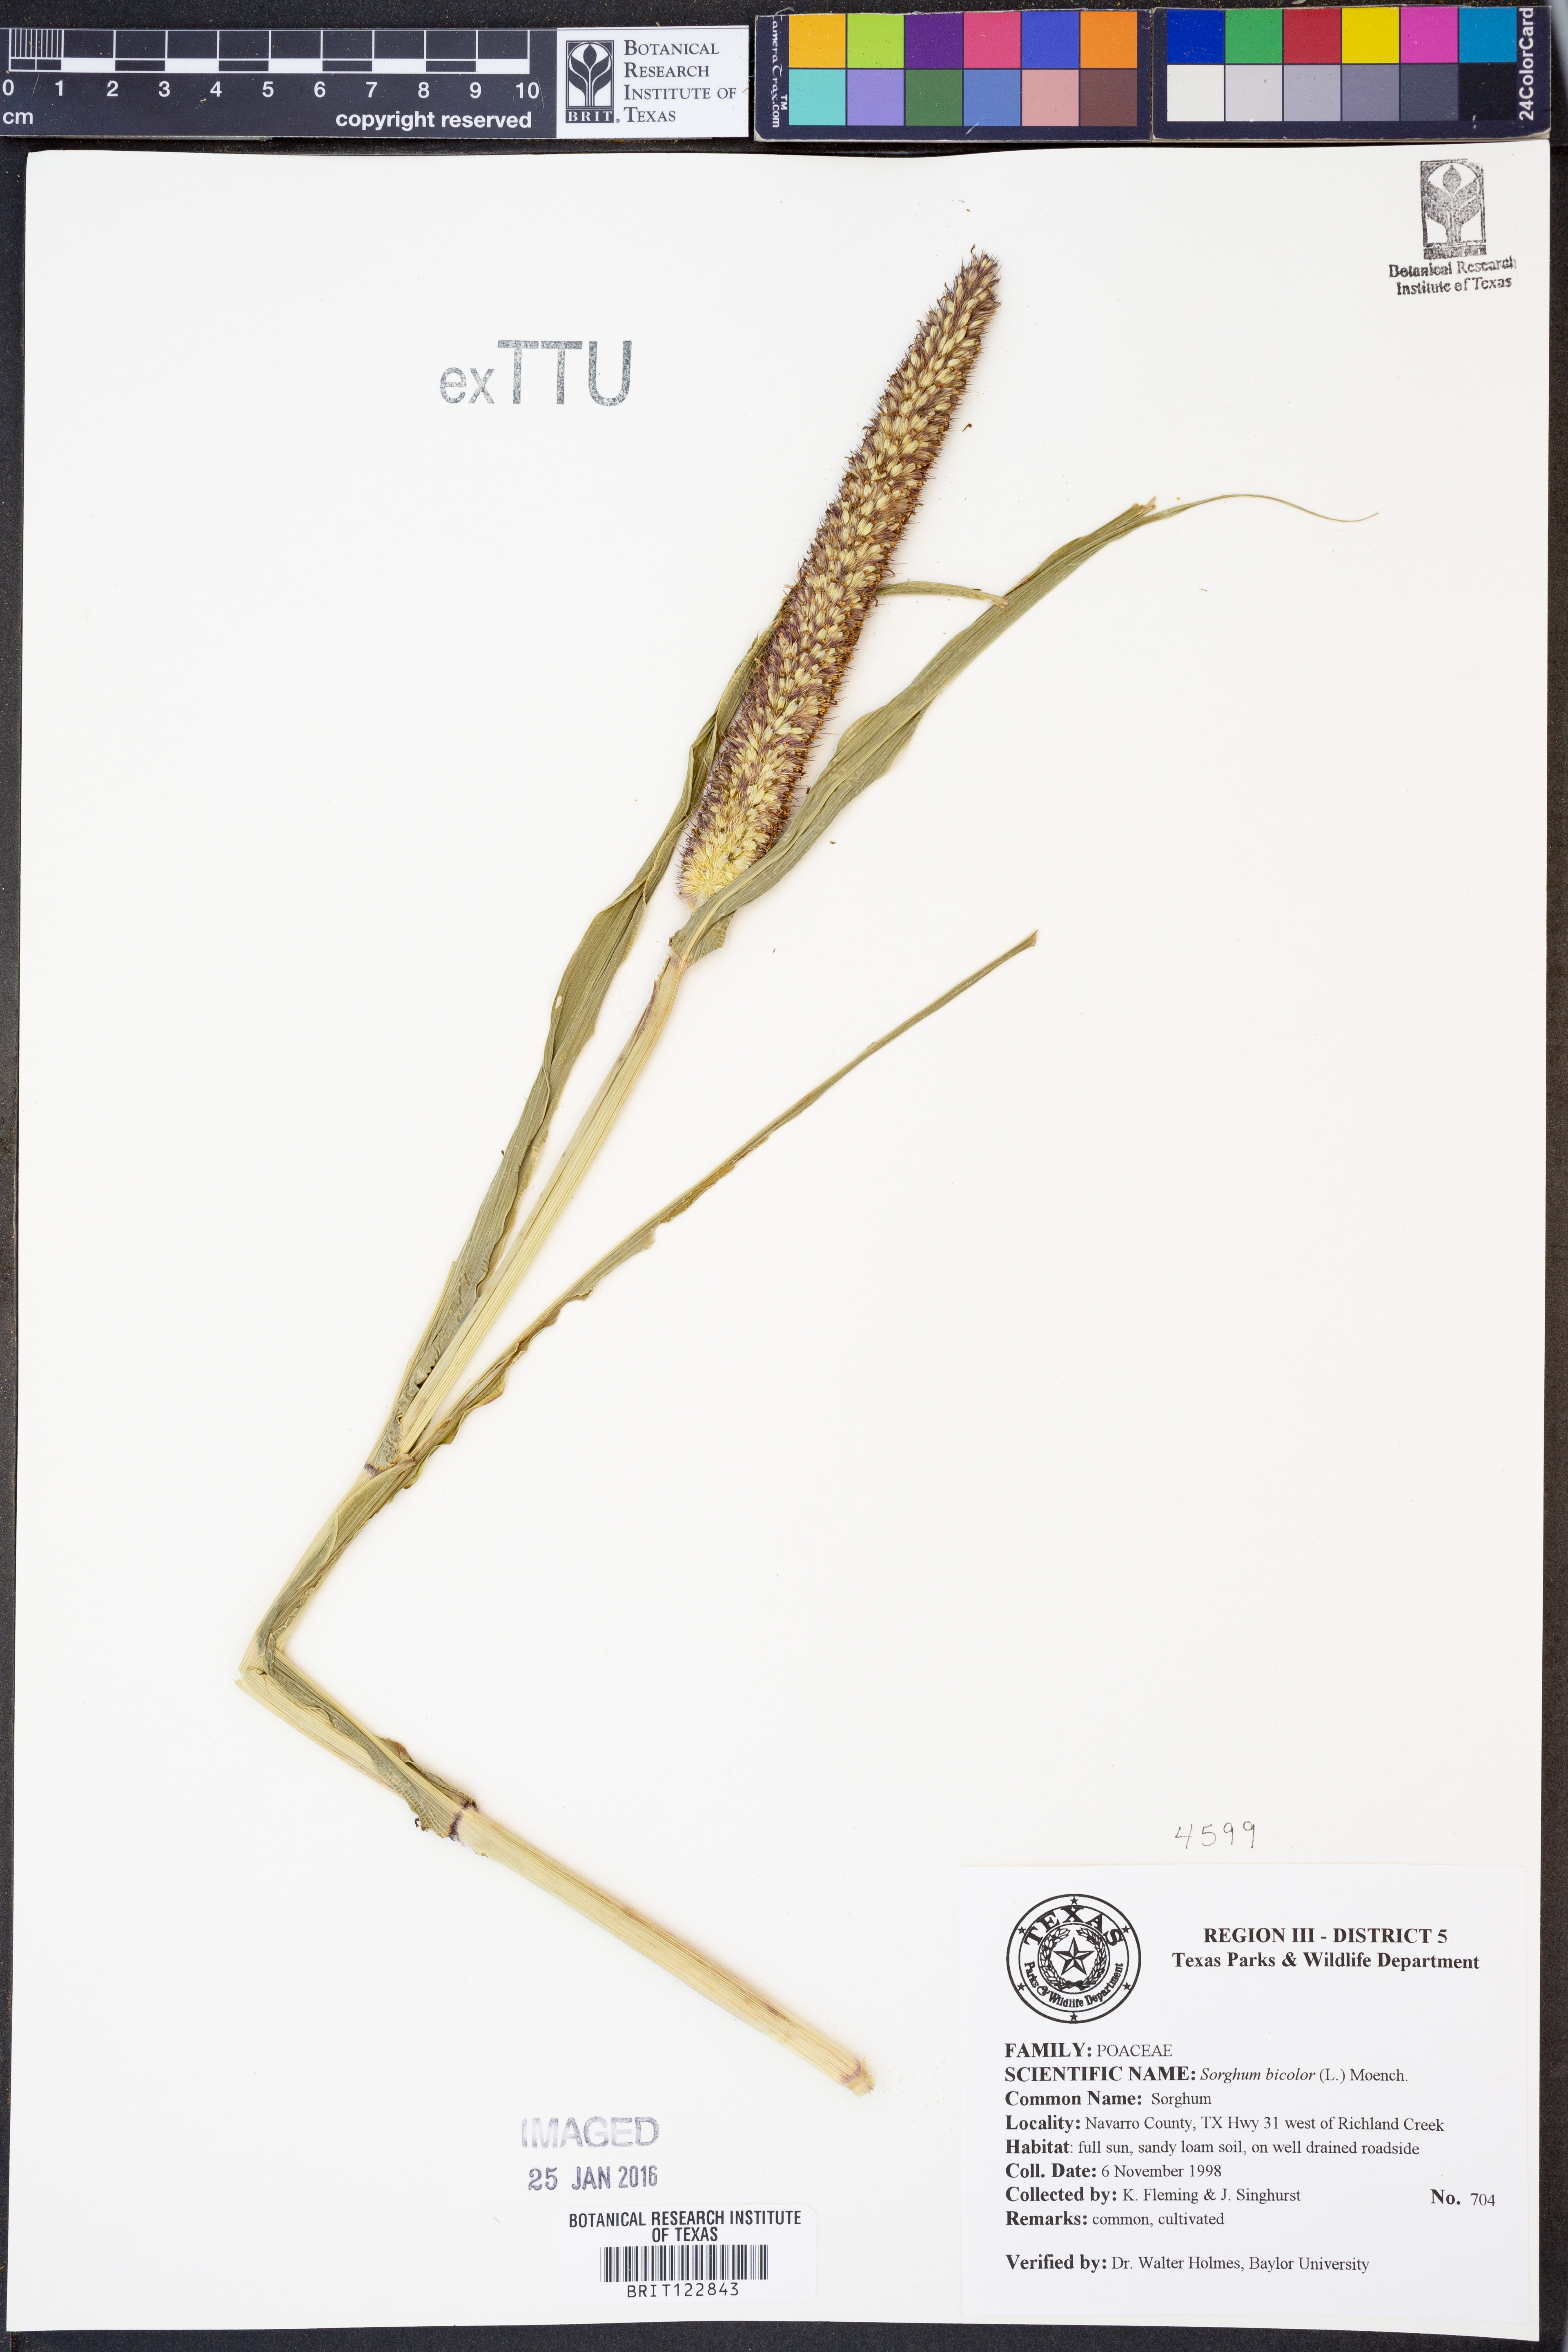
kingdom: Plantae
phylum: Tracheophyta
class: Liliopsida
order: Poales
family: Poaceae
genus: Sorghum
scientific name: Sorghum bicolor
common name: Sorghum
